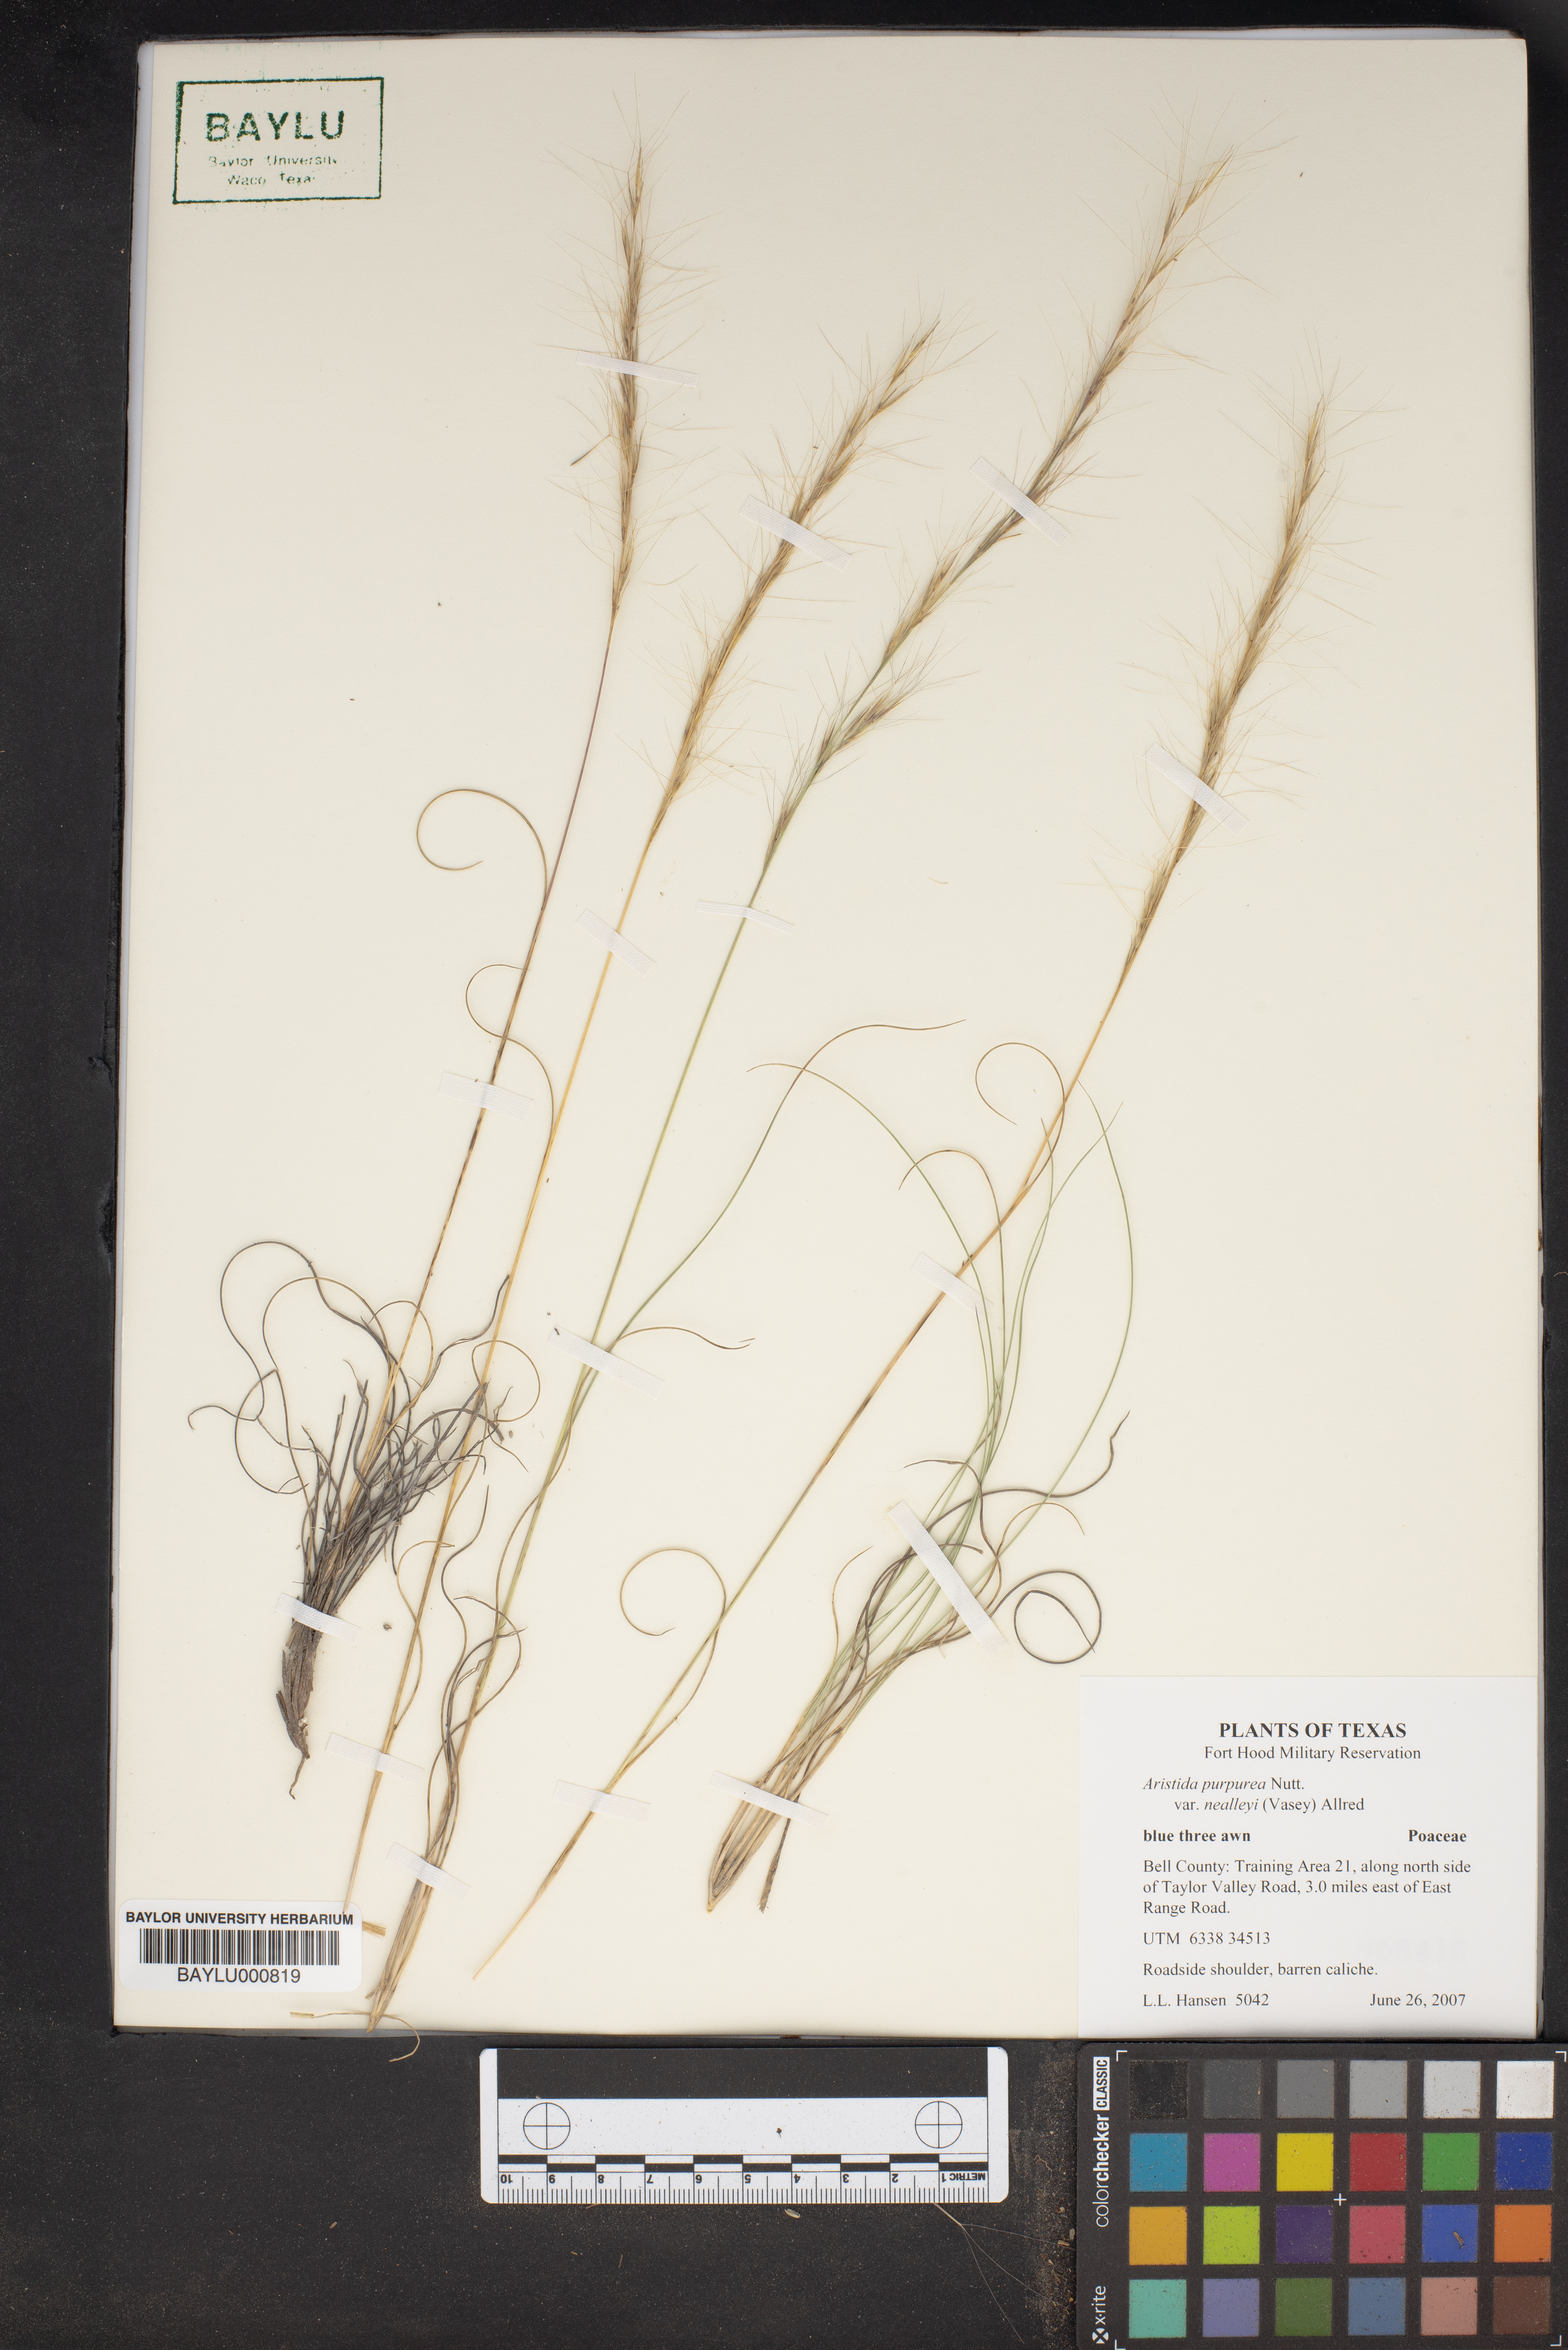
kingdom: Plantae
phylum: Tracheophyta
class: Liliopsida
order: Poales
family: Poaceae
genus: Aristida
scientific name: Aristida glauca
